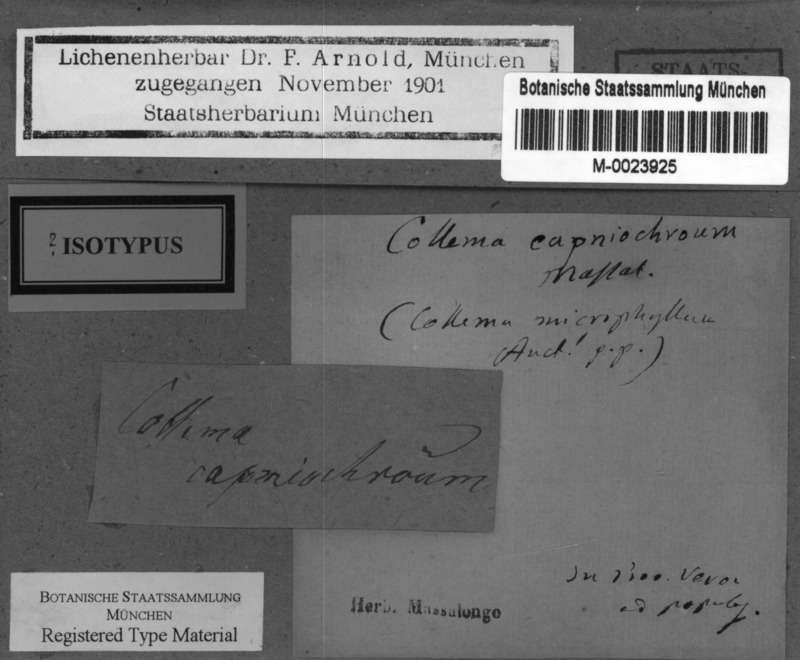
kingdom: Fungi
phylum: Ascomycota
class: Lecanoromycetes
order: Peltigerales
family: Collemataceae
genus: Scytinium
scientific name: Scytinium fragrans
